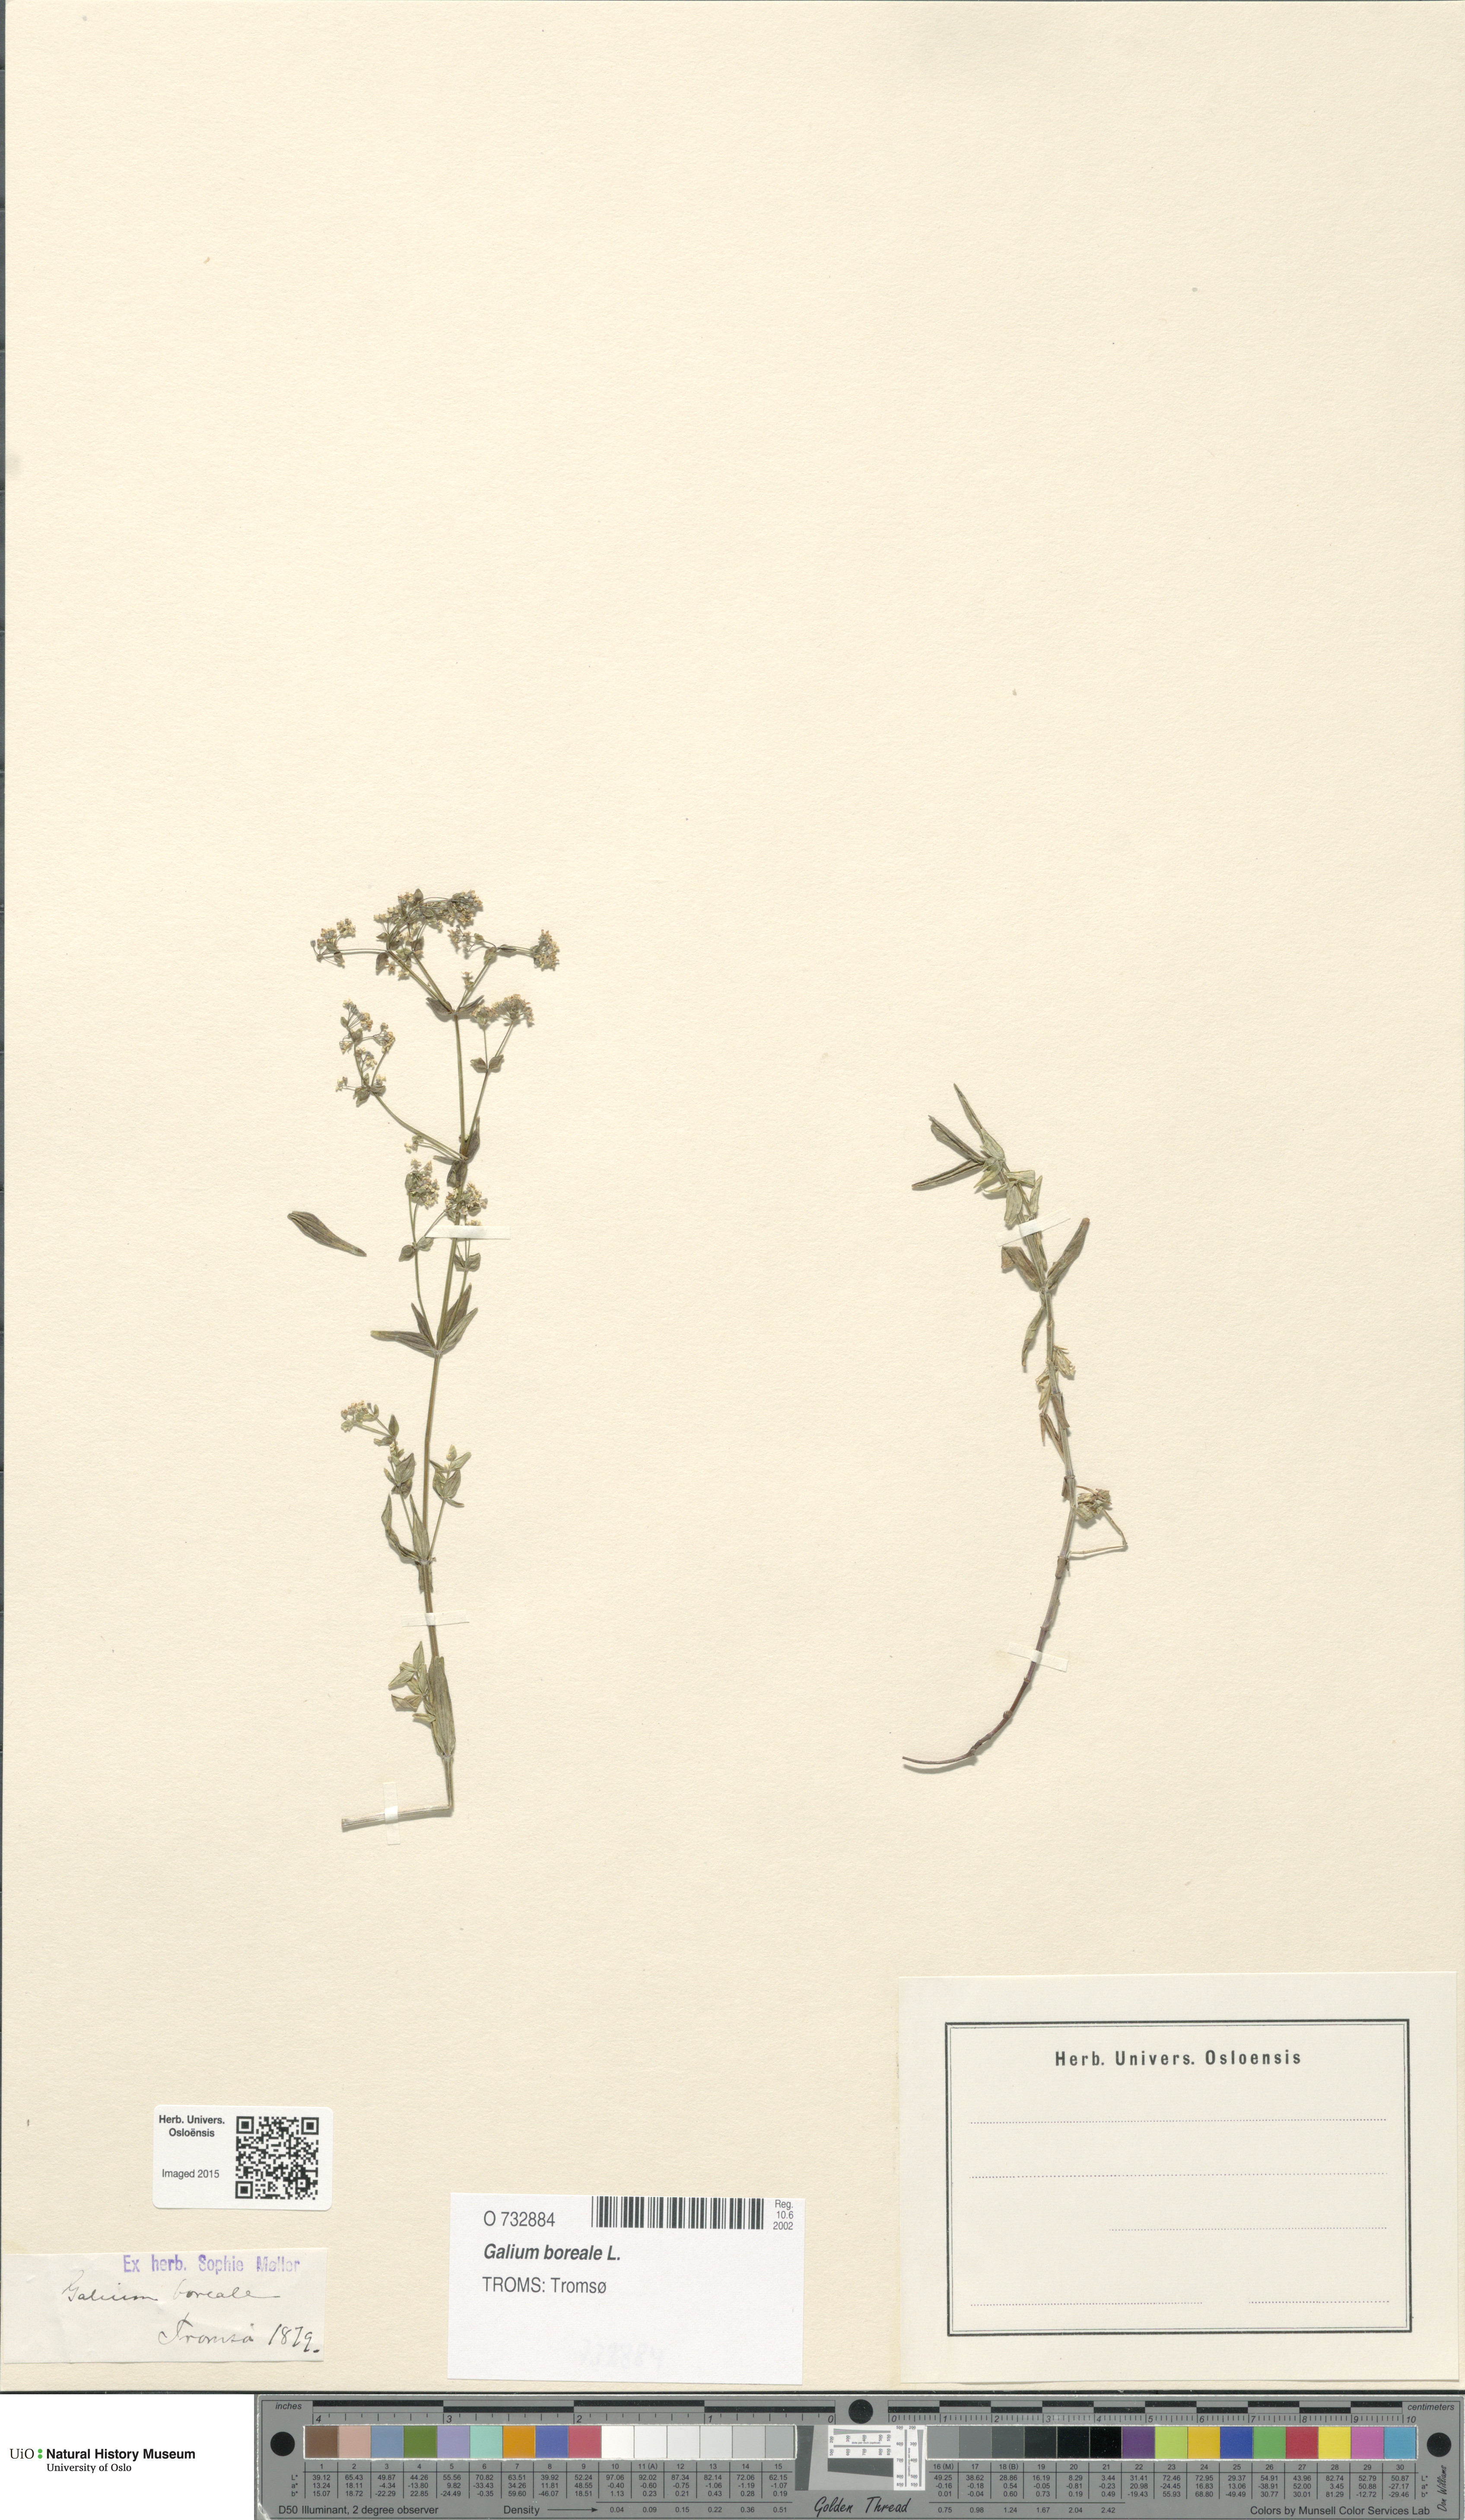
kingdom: Plantae
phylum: Tracheophyta
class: Magnoliopsida
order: Gentianales
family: Rubiaceae
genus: Galium
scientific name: Galium boreale
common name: Northern bedstraw
